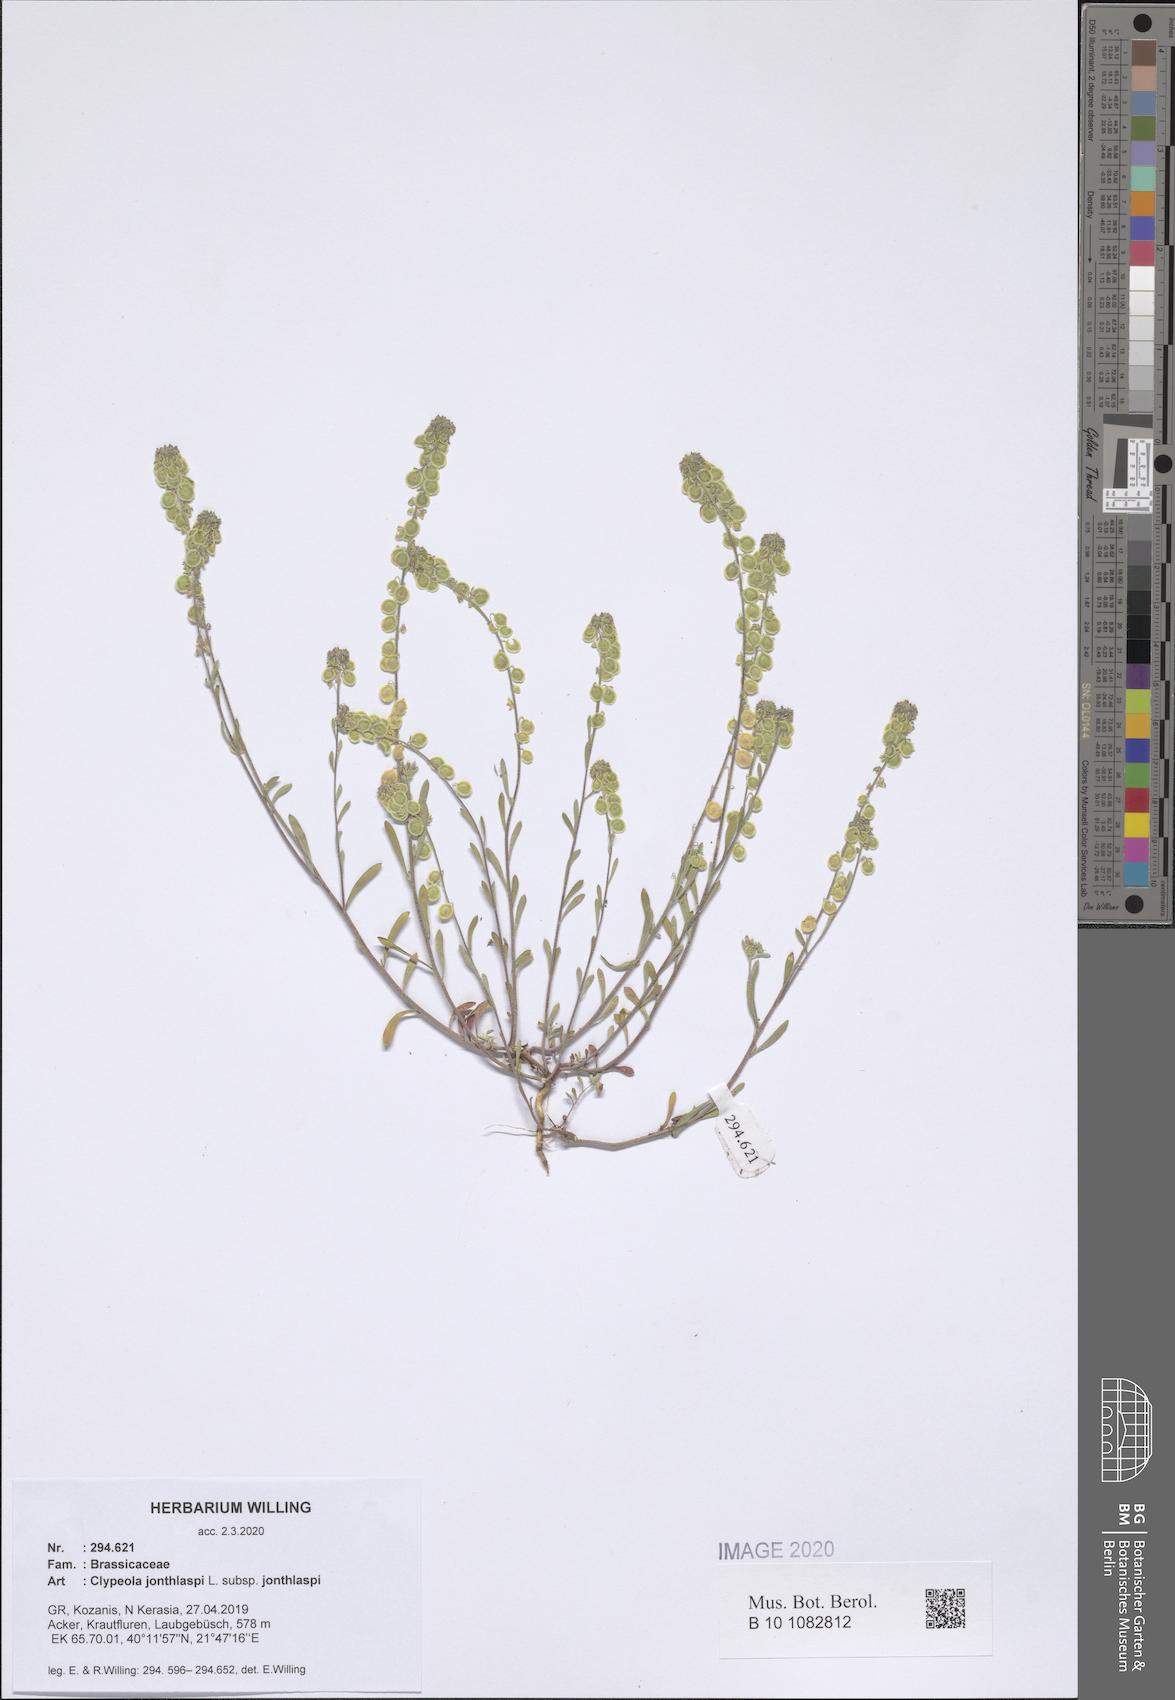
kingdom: Plantae
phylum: Tracheophyta
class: Magnoliopsida
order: Brassicales
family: Brassicaceae
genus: Clypeola
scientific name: Clypeola jonthlaspi
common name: Disk cress
